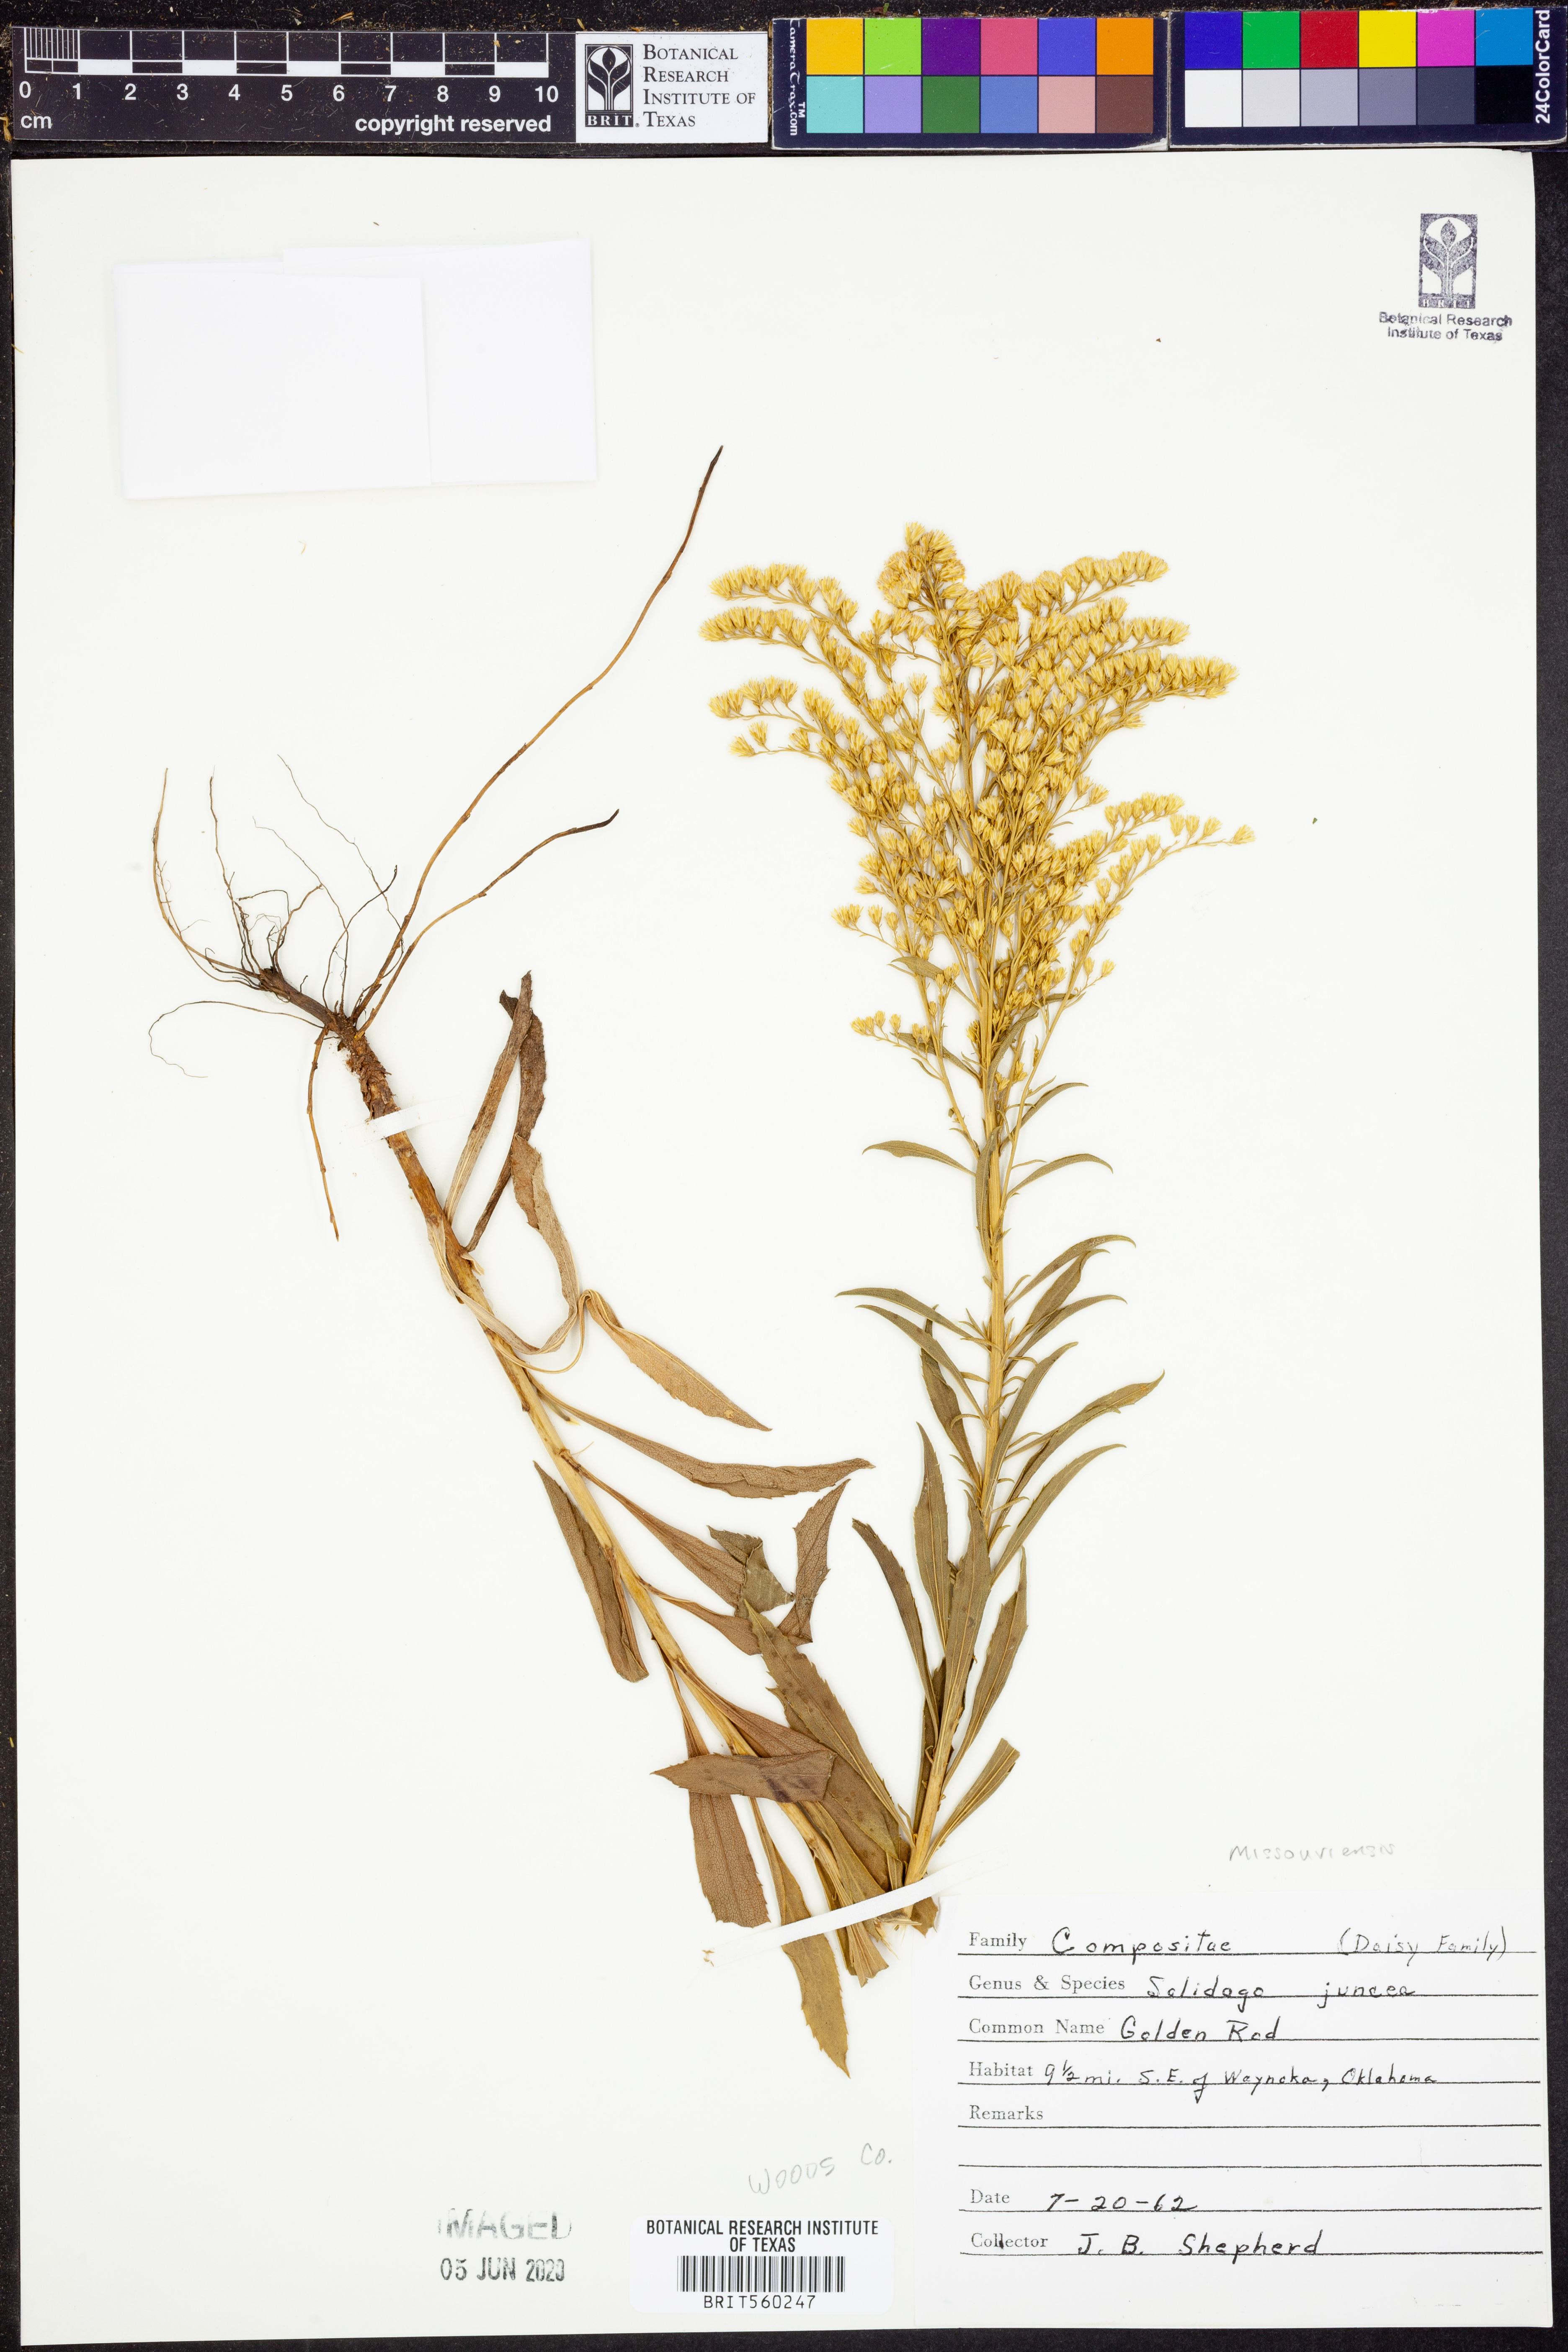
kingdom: Plantae
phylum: Tracheophyta
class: Magnoliopsida
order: Asterales
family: Asteraceae
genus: Solidago
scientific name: Solidago missouriensis
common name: Prairie goldenrod
